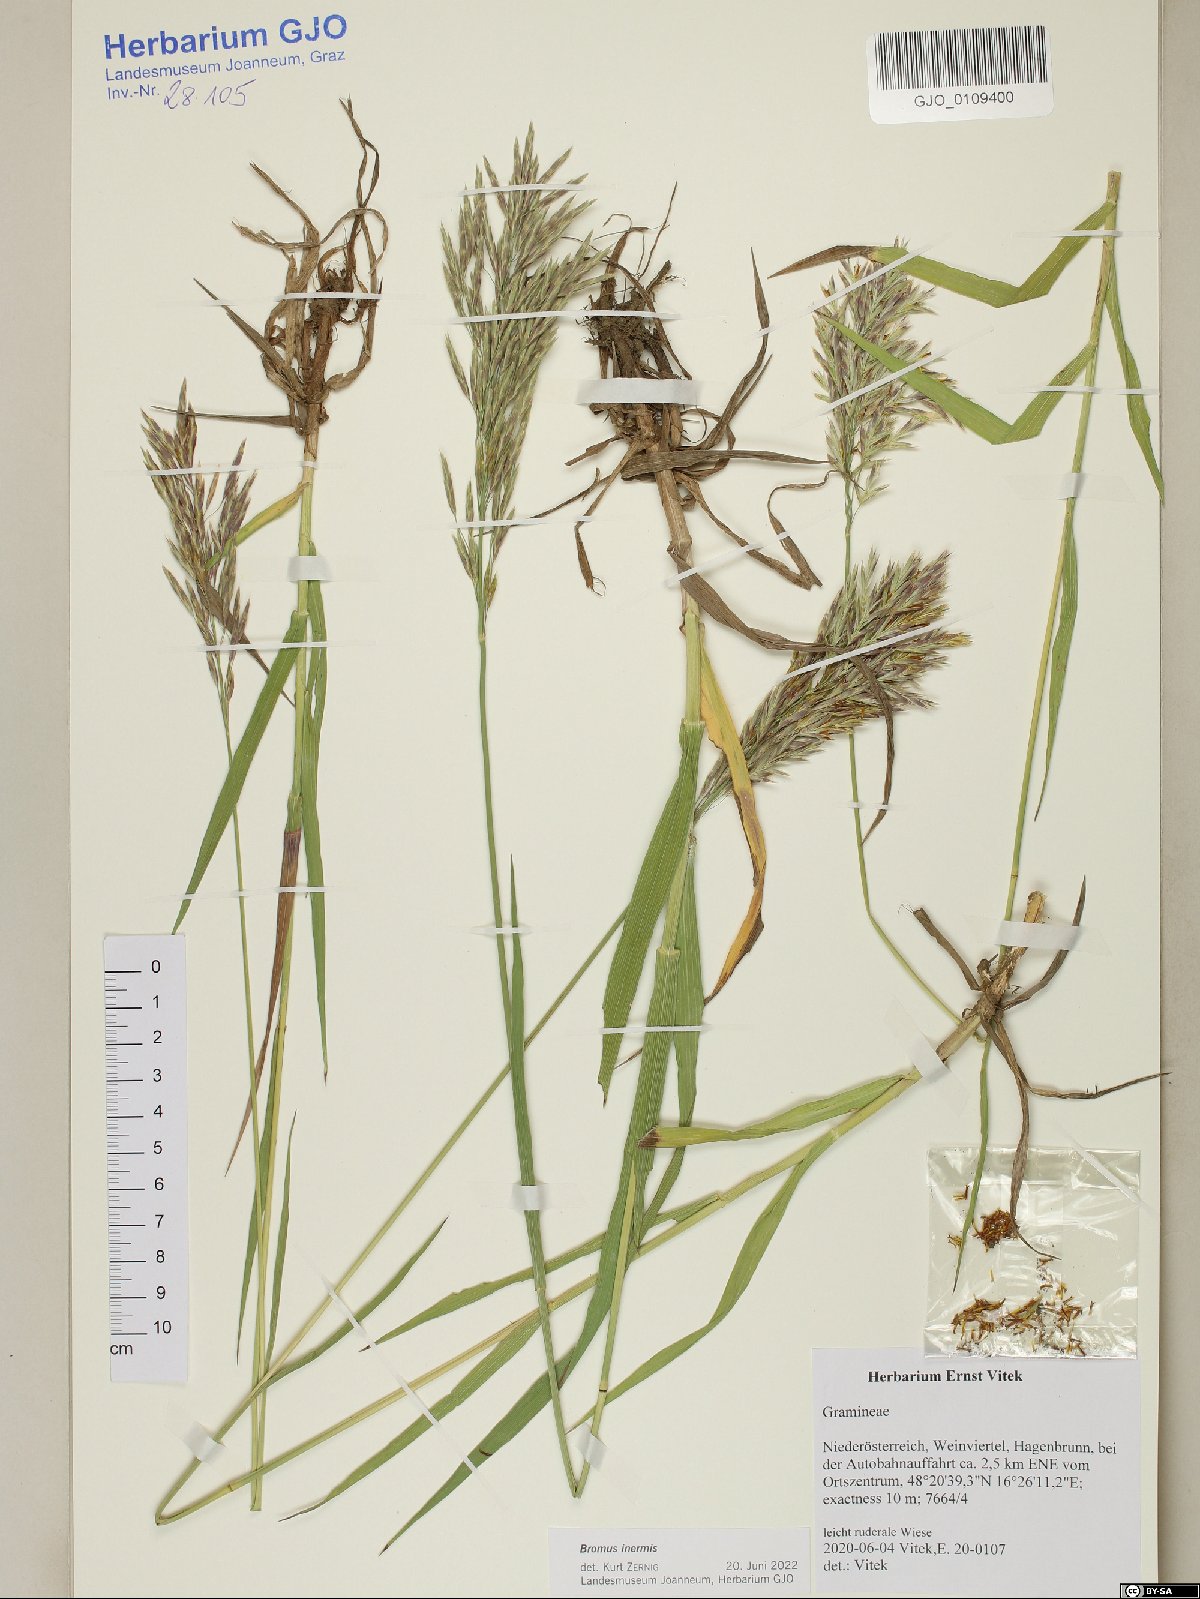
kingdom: Plantae
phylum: Tracheophyta
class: Liliopsida
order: Poales
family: Poaceae
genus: Bromus
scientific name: Bromus inermis
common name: Smooth brome
